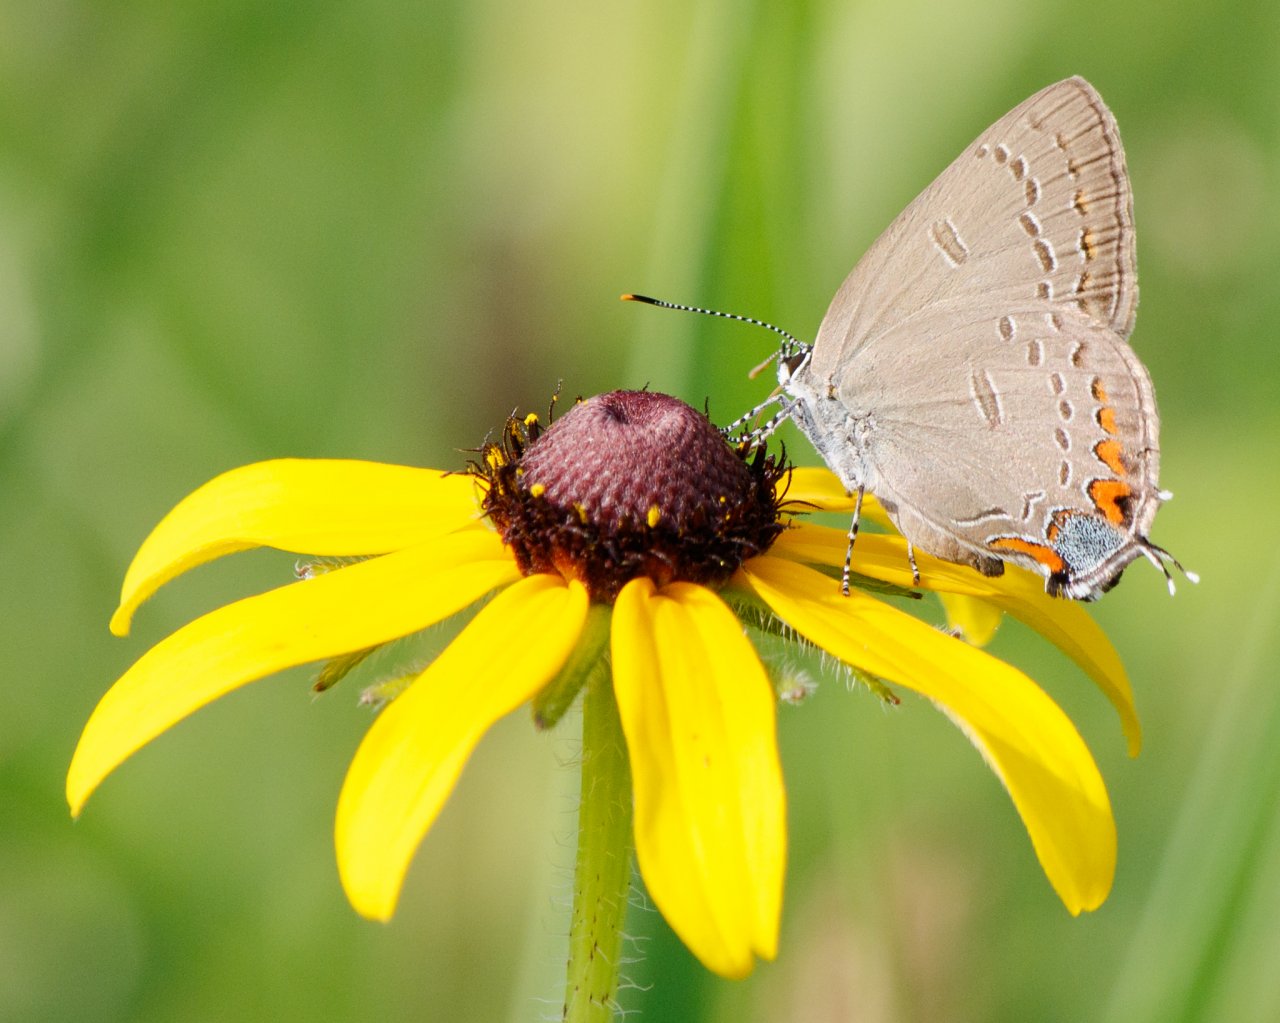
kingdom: Animalia
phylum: Arthropoda
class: Insecta
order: Lepidoptera
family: Lycaenidae
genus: Satyrium
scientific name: Satyrium edwardsii
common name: Edwards' Hairstreak
